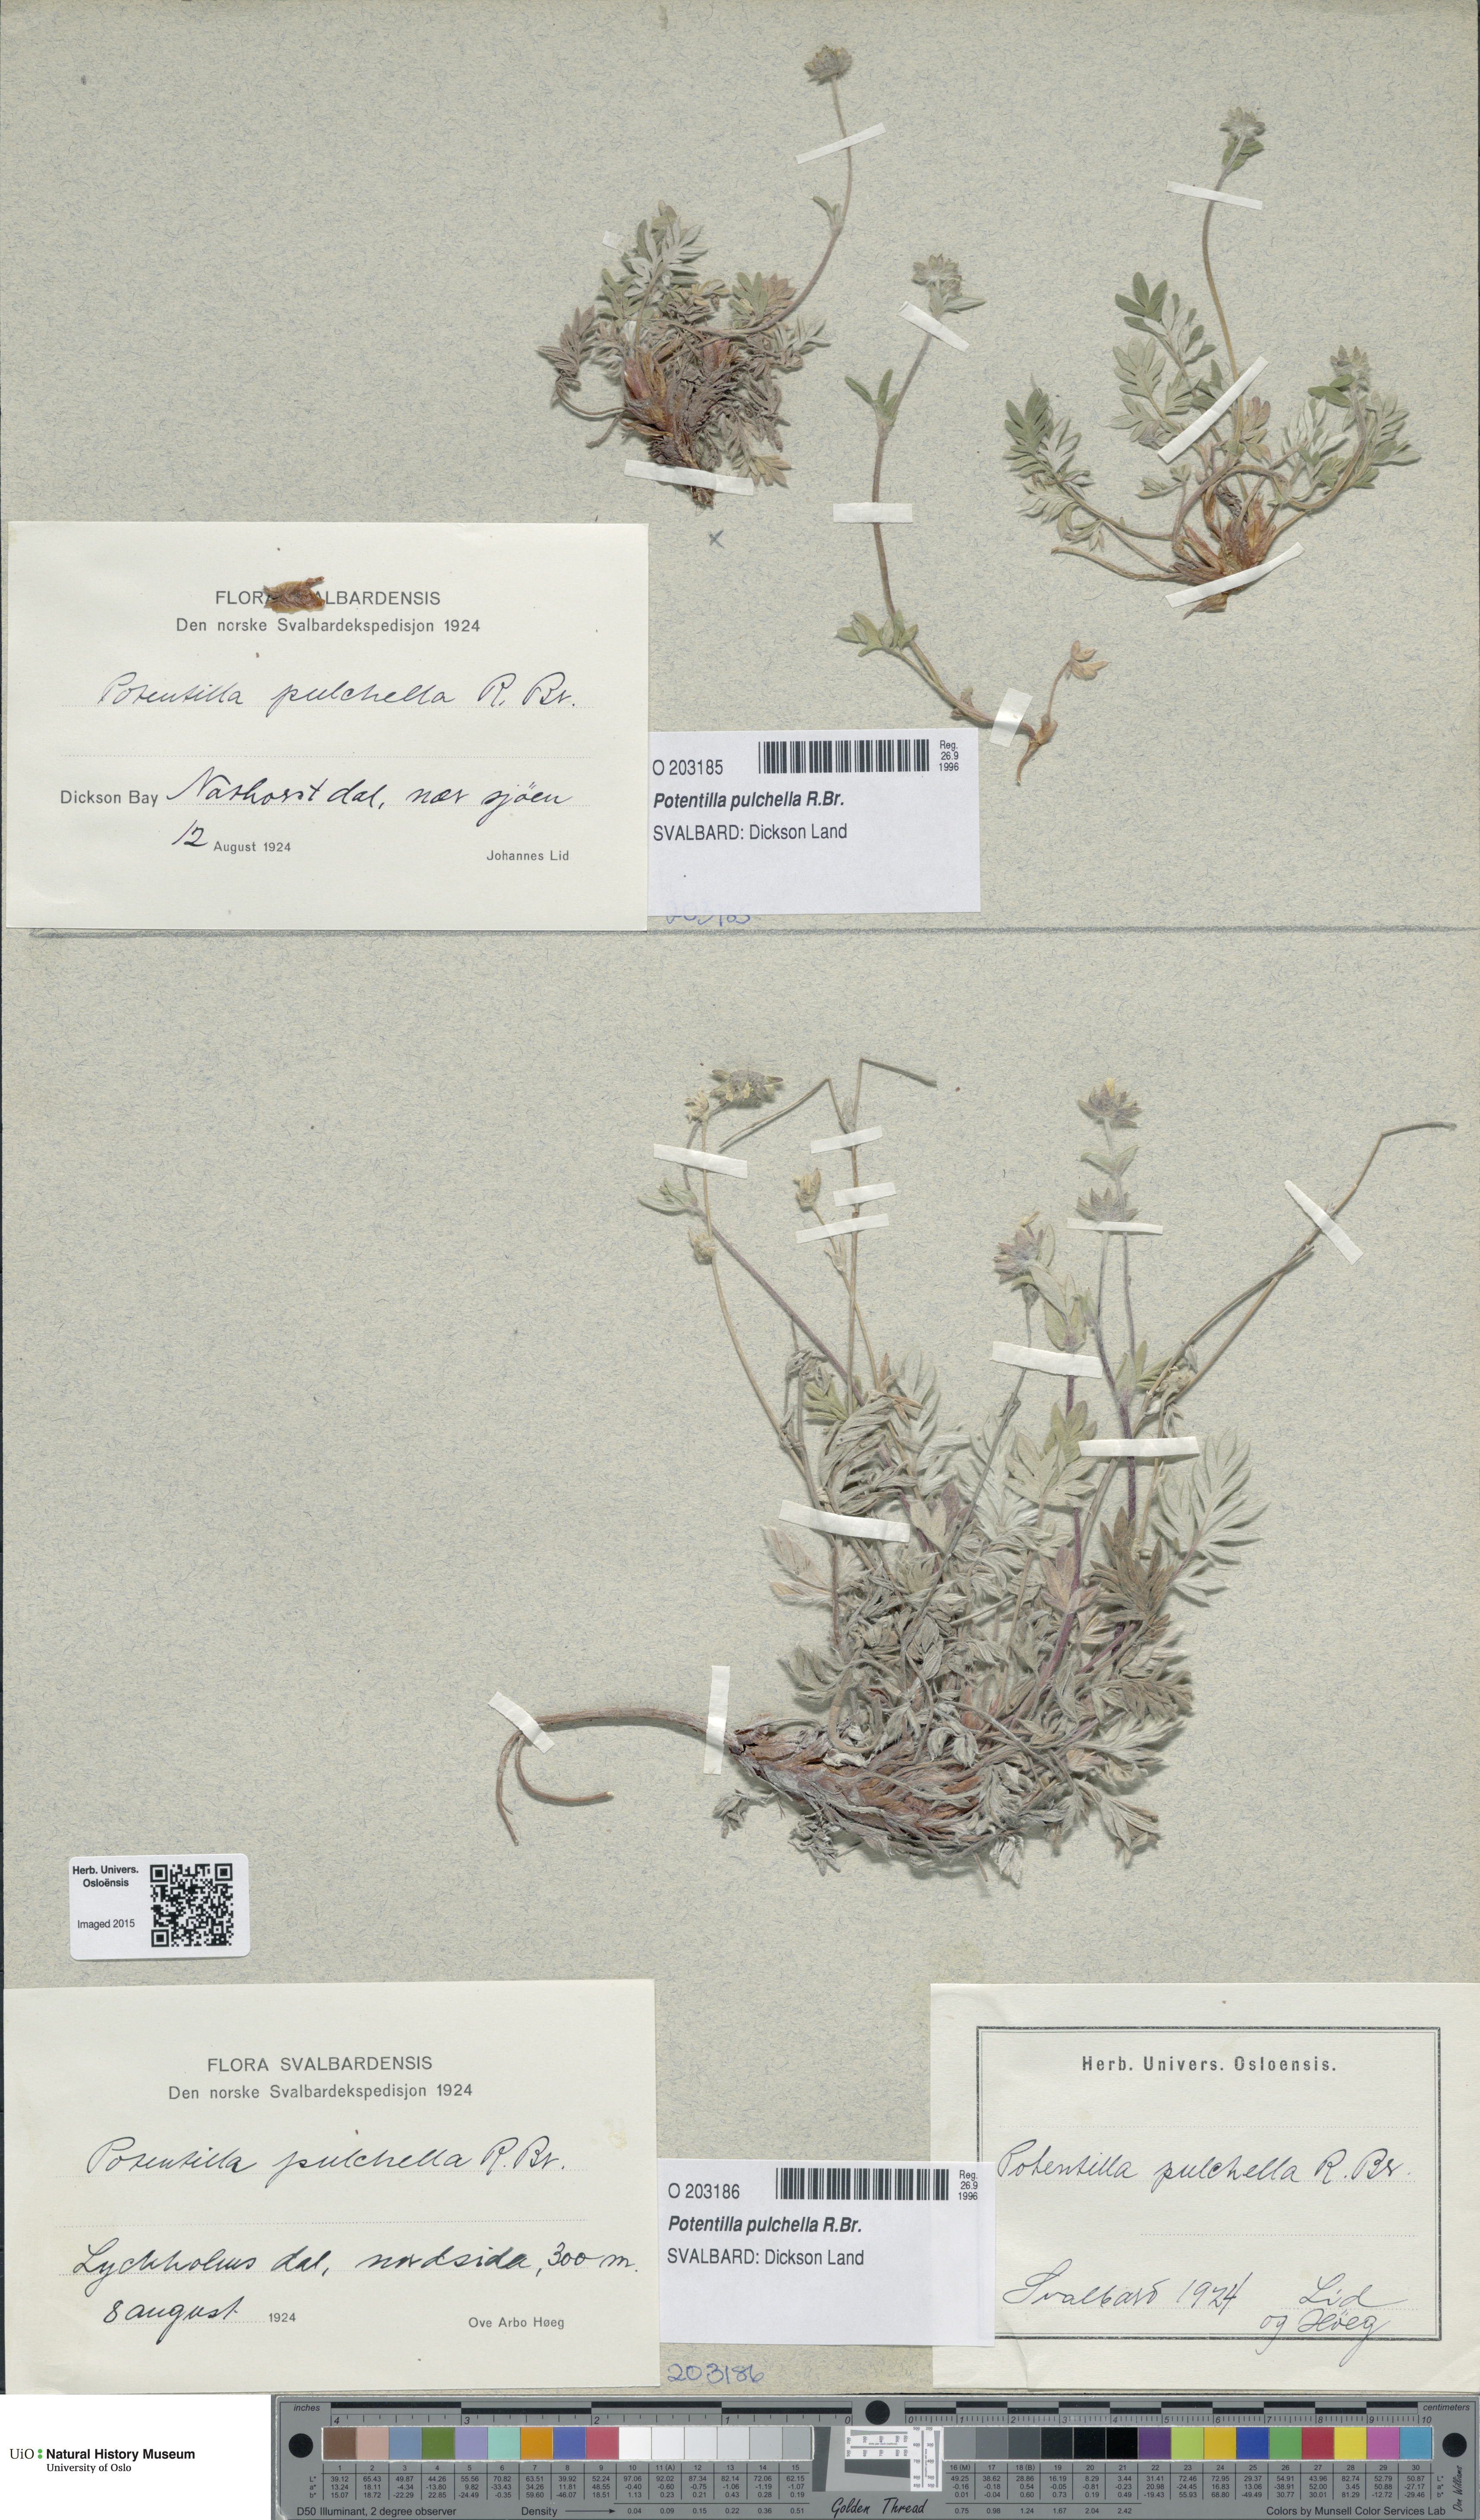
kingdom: Plantae
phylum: Tracheophyta
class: Magnoliopsida
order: Rosales
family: Rosaceae
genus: Potentilla
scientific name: Potentilla pulchella
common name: Pretty cinquefoil
